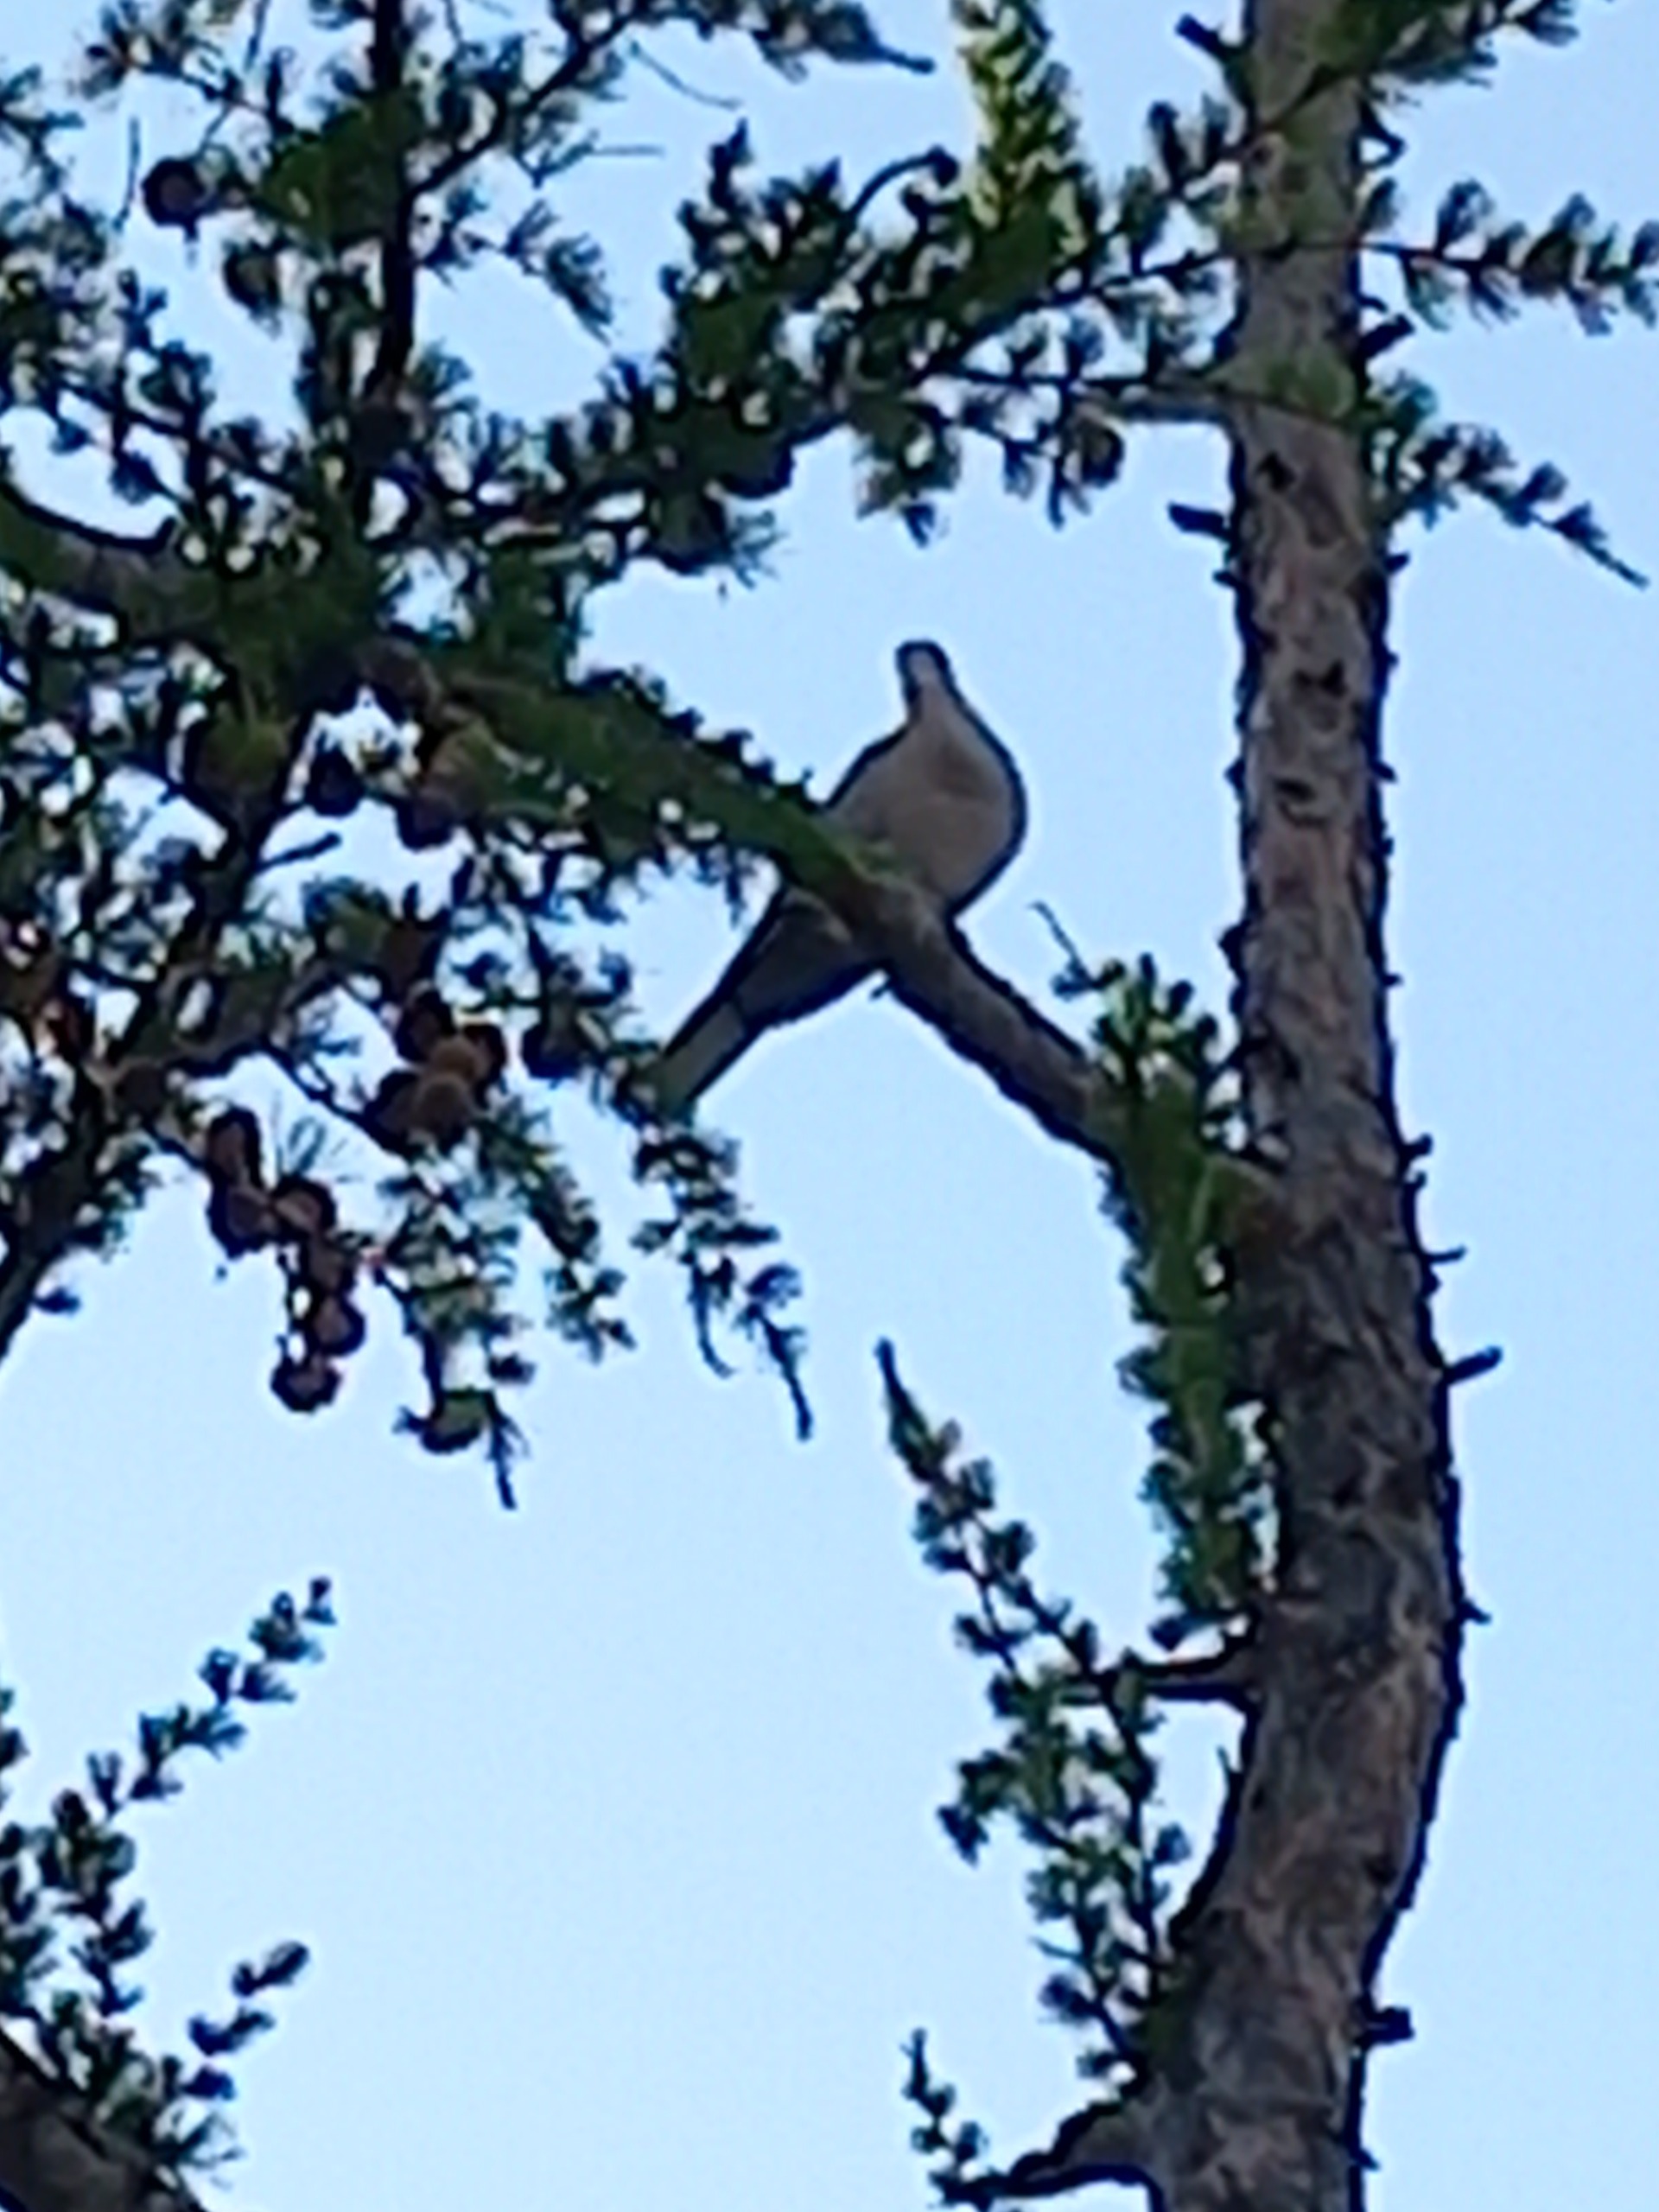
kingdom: Animalia
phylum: Chordata
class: Aves
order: Columbiformes
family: Columbidae
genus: Streptopelia
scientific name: Streptopelia decaocto
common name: Tyrkerdue
